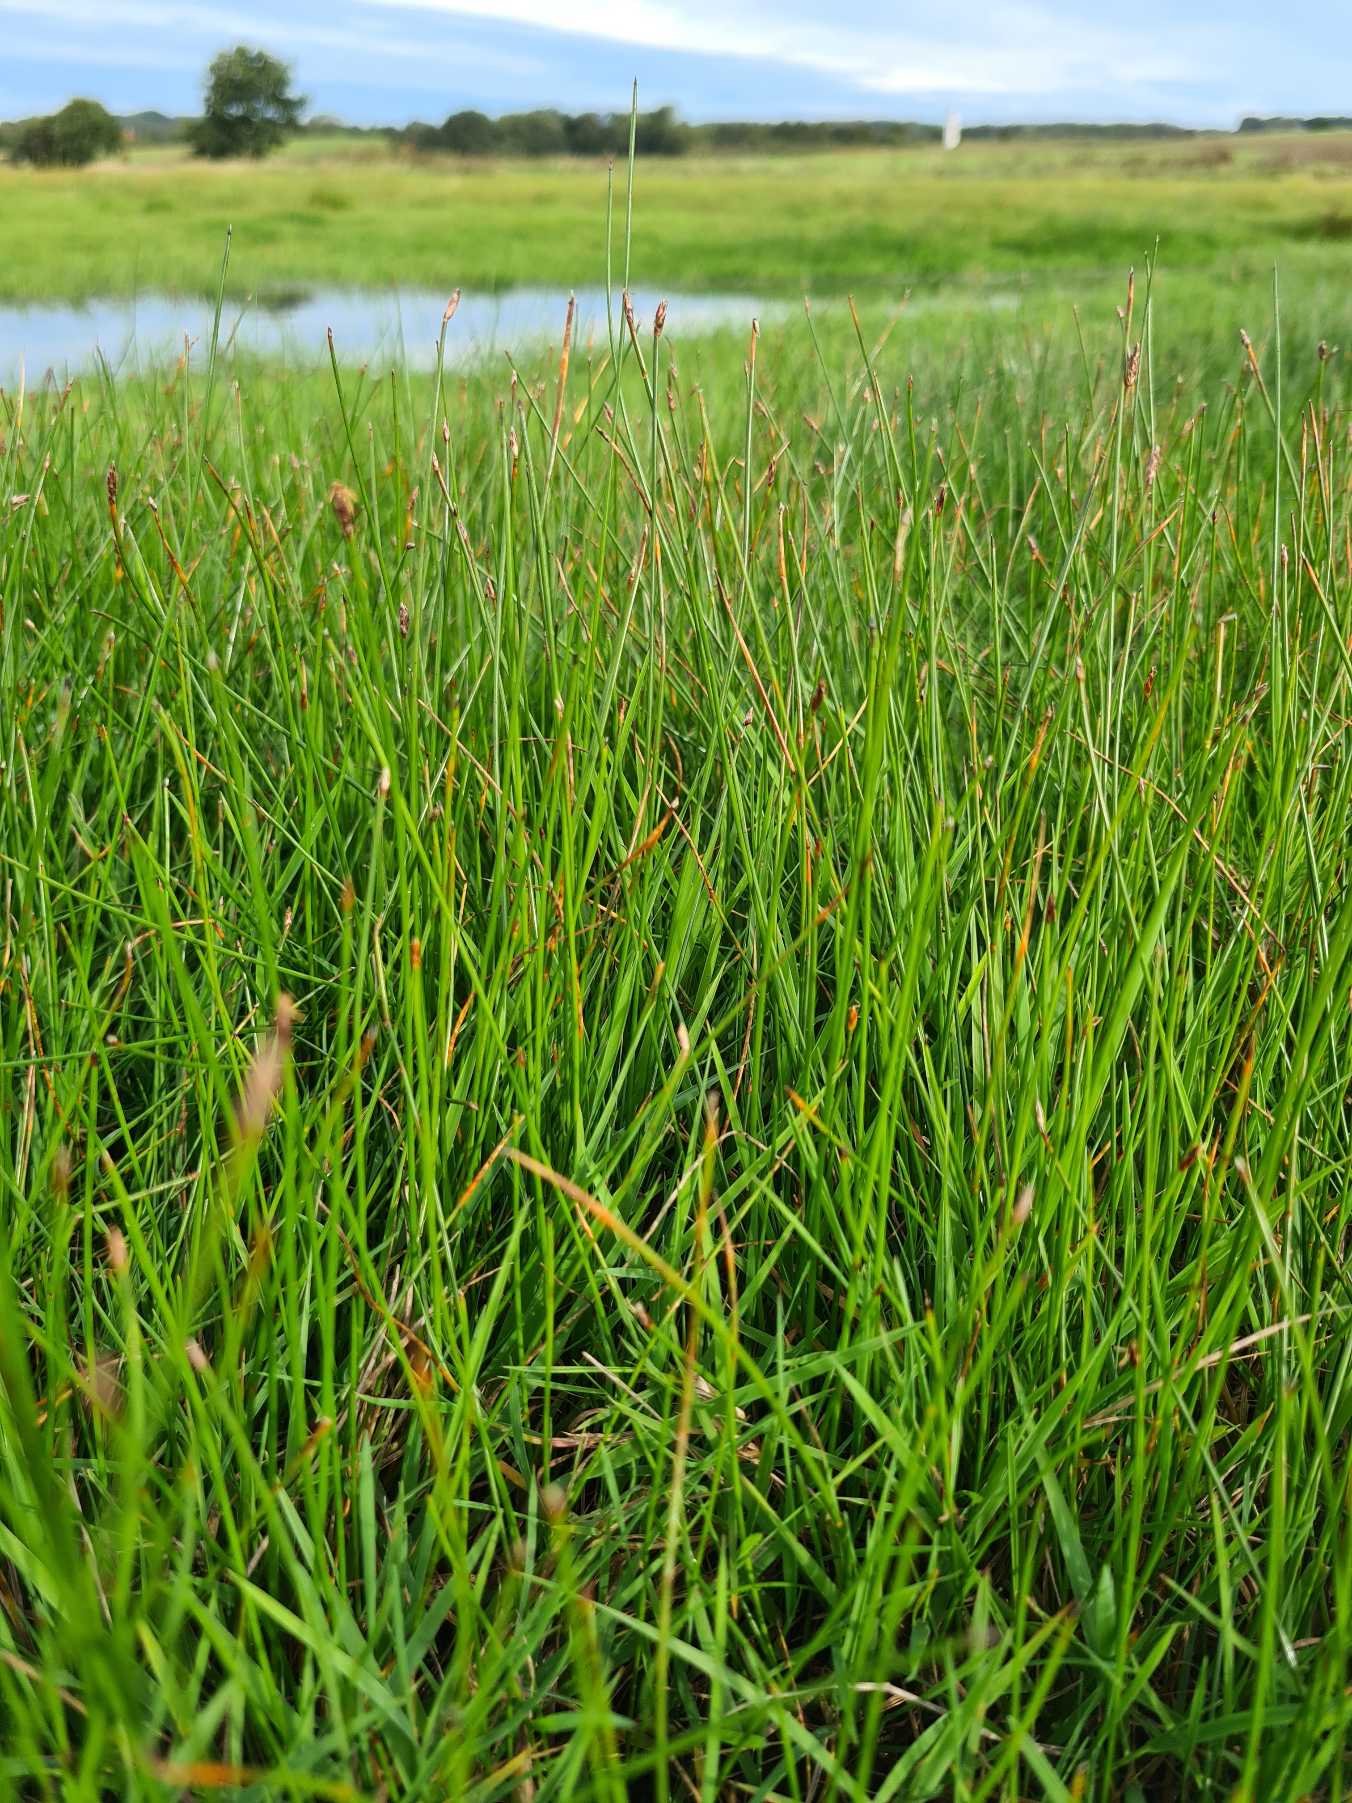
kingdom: Plantae
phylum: Tracheophyta
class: Liliopsida
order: Poales
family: Cyperaceae
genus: Eleocharis
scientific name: Eleocharis uniglumis
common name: Enskællet sumpstrå
